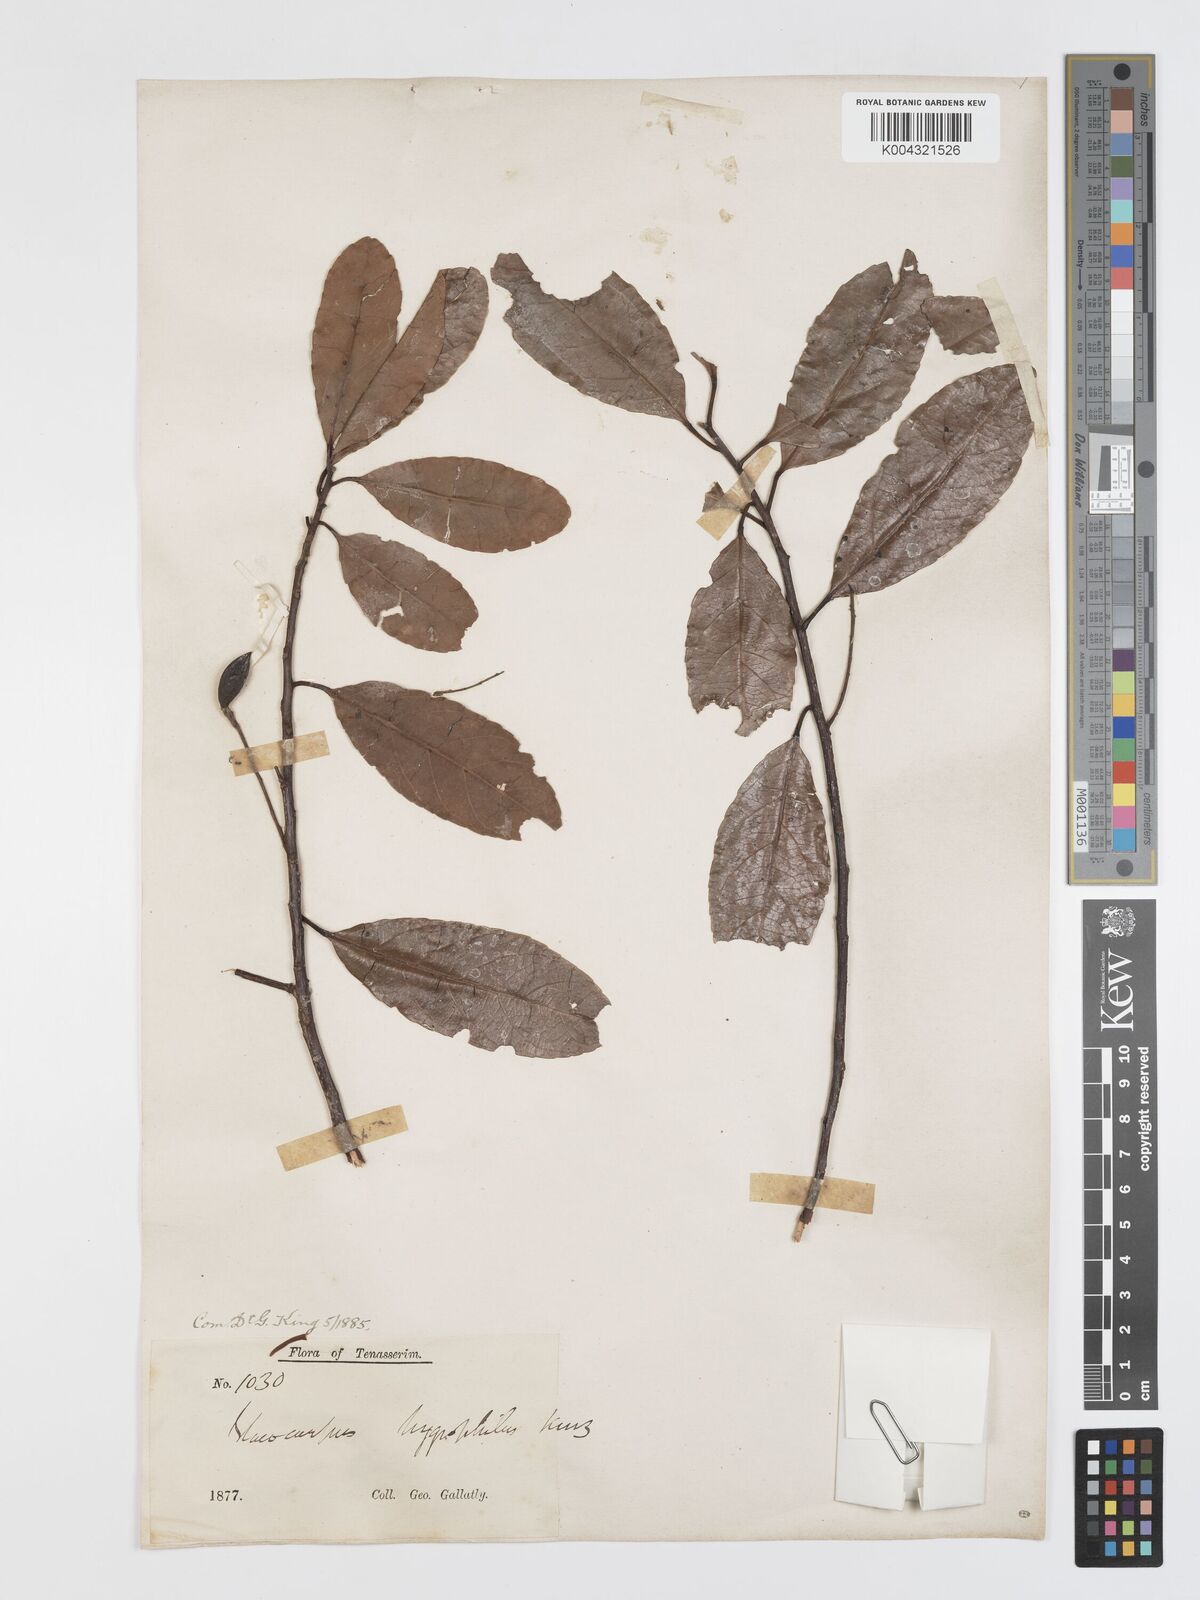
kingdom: Plantae
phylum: Tracheophyta
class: Magnoliopsida
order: Oxalidales
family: Elaeocarpaceae
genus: Elaeocarpus
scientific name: Elaeocarpus hygrophilus
